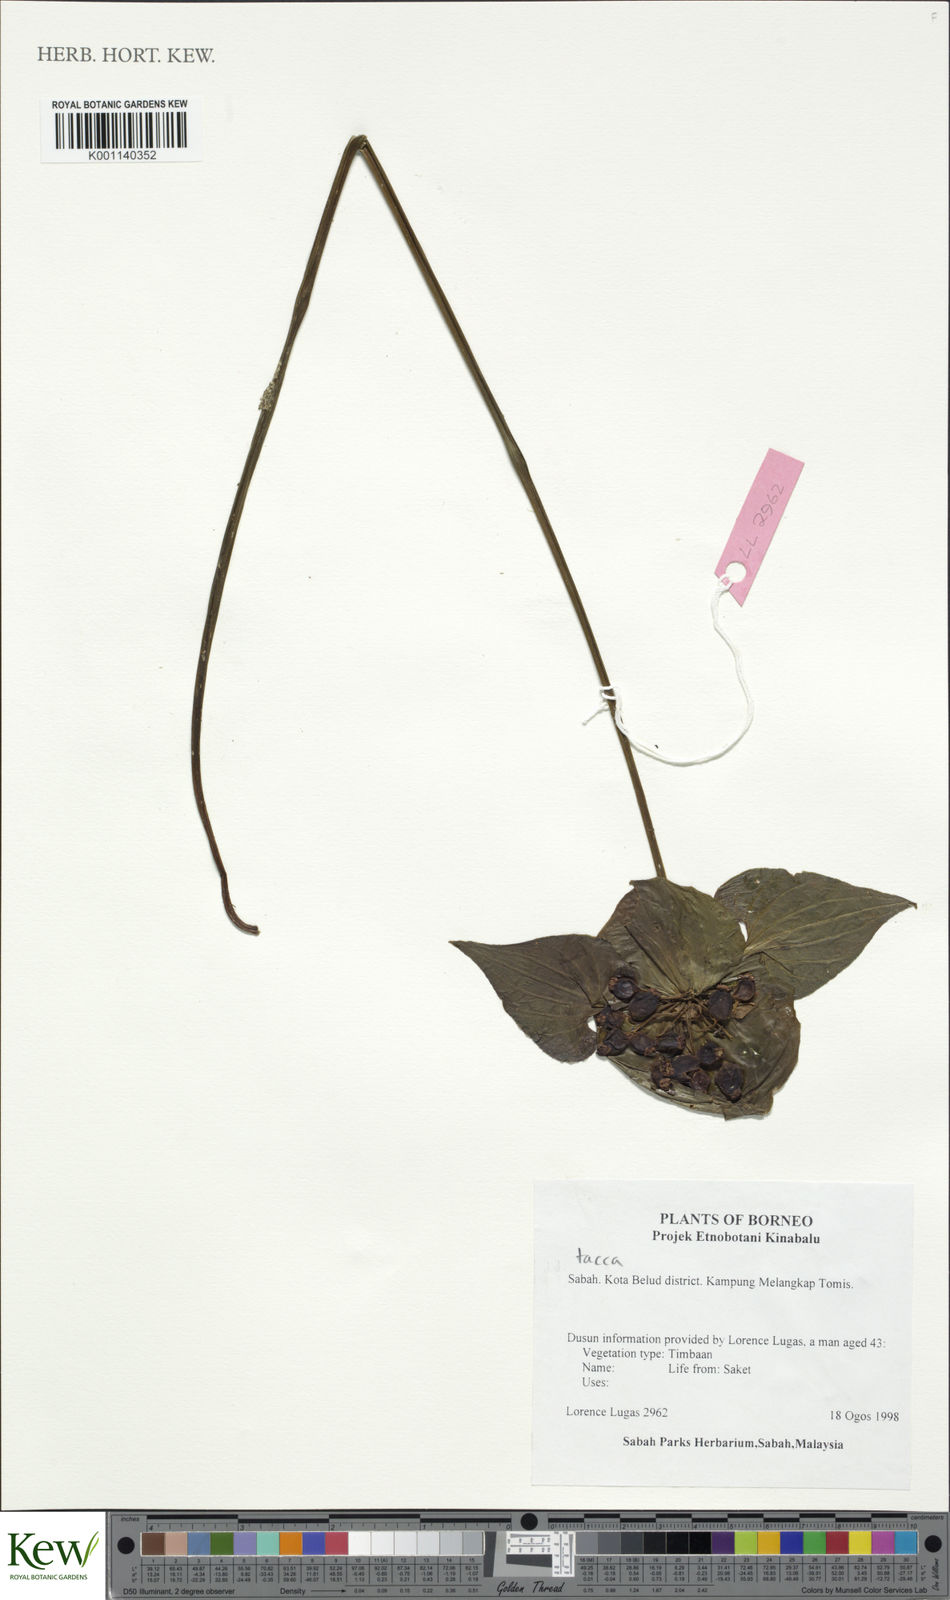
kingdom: Plantae
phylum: Tracheophyta
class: Liliopsida
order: Dioscoreales
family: Dioscoreaceae
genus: Tacca
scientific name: Tacca palmata
